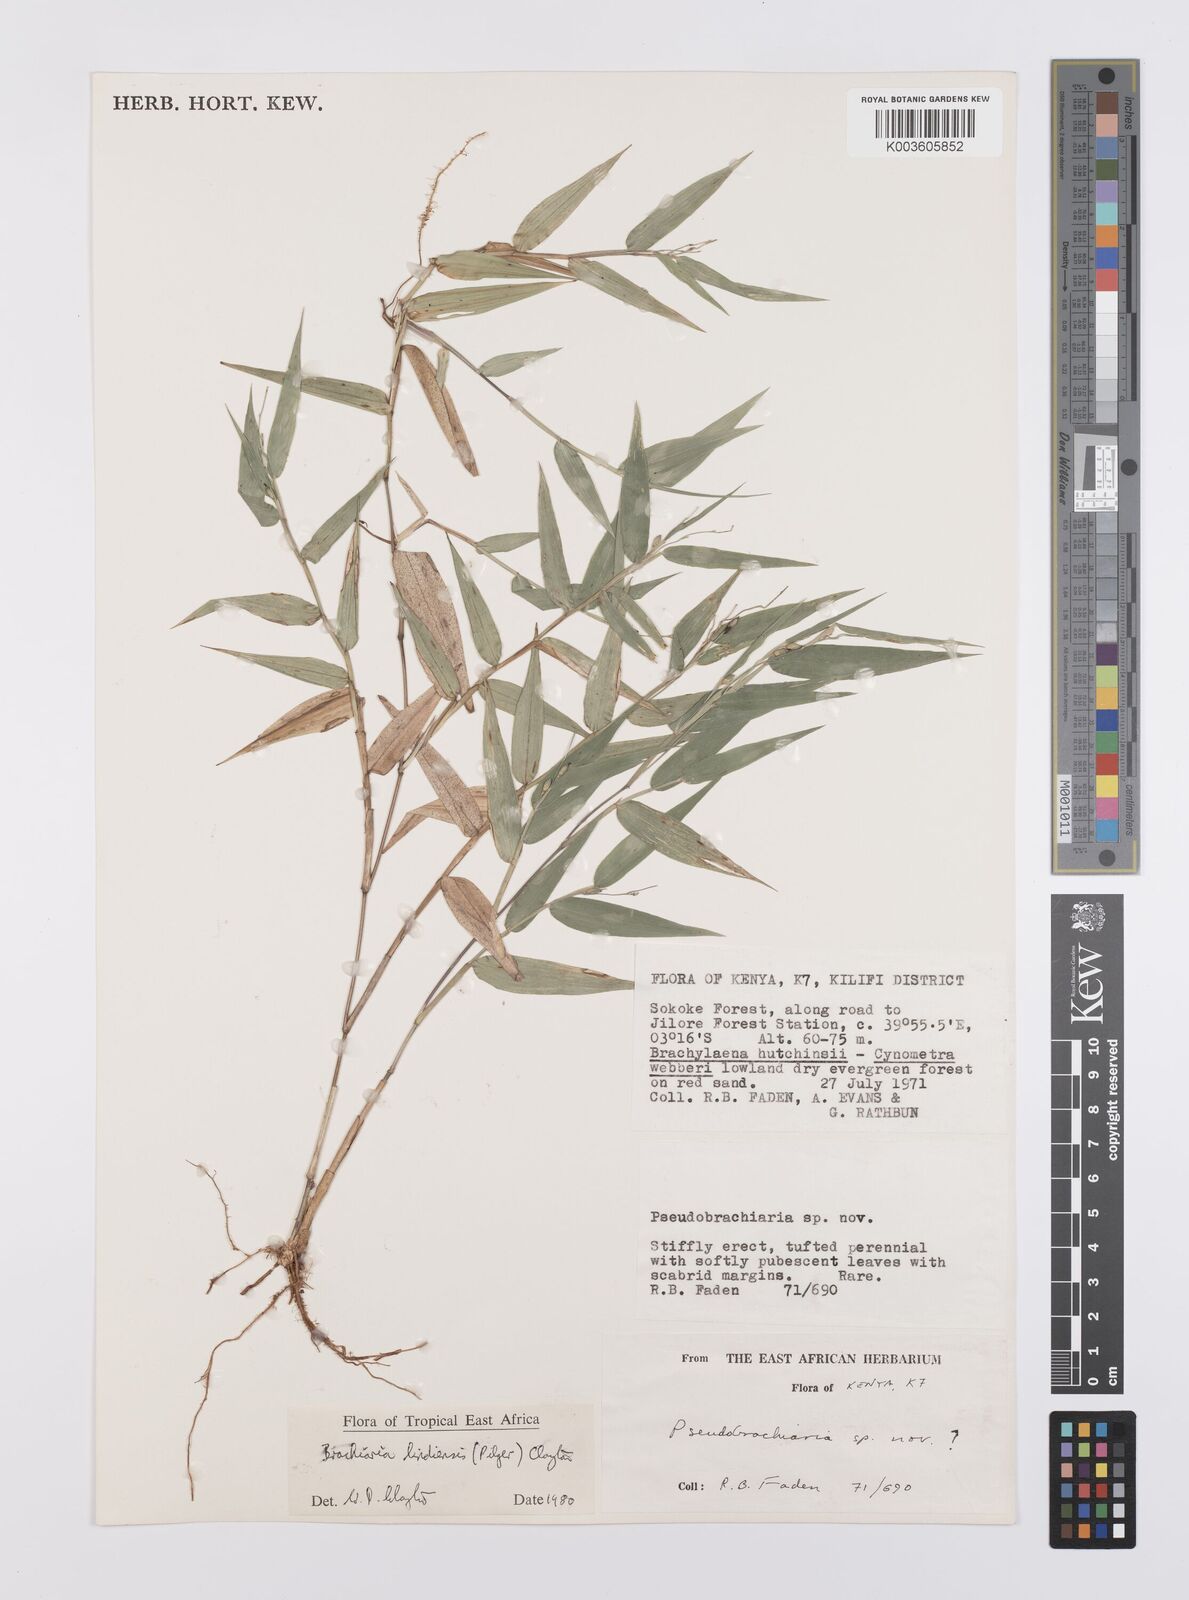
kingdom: Plantae
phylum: Tracheophyta
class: Liliopsida
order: Poales
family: Poaceae
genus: Urochloa
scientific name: Urochloa Brachiaria lindiensis
